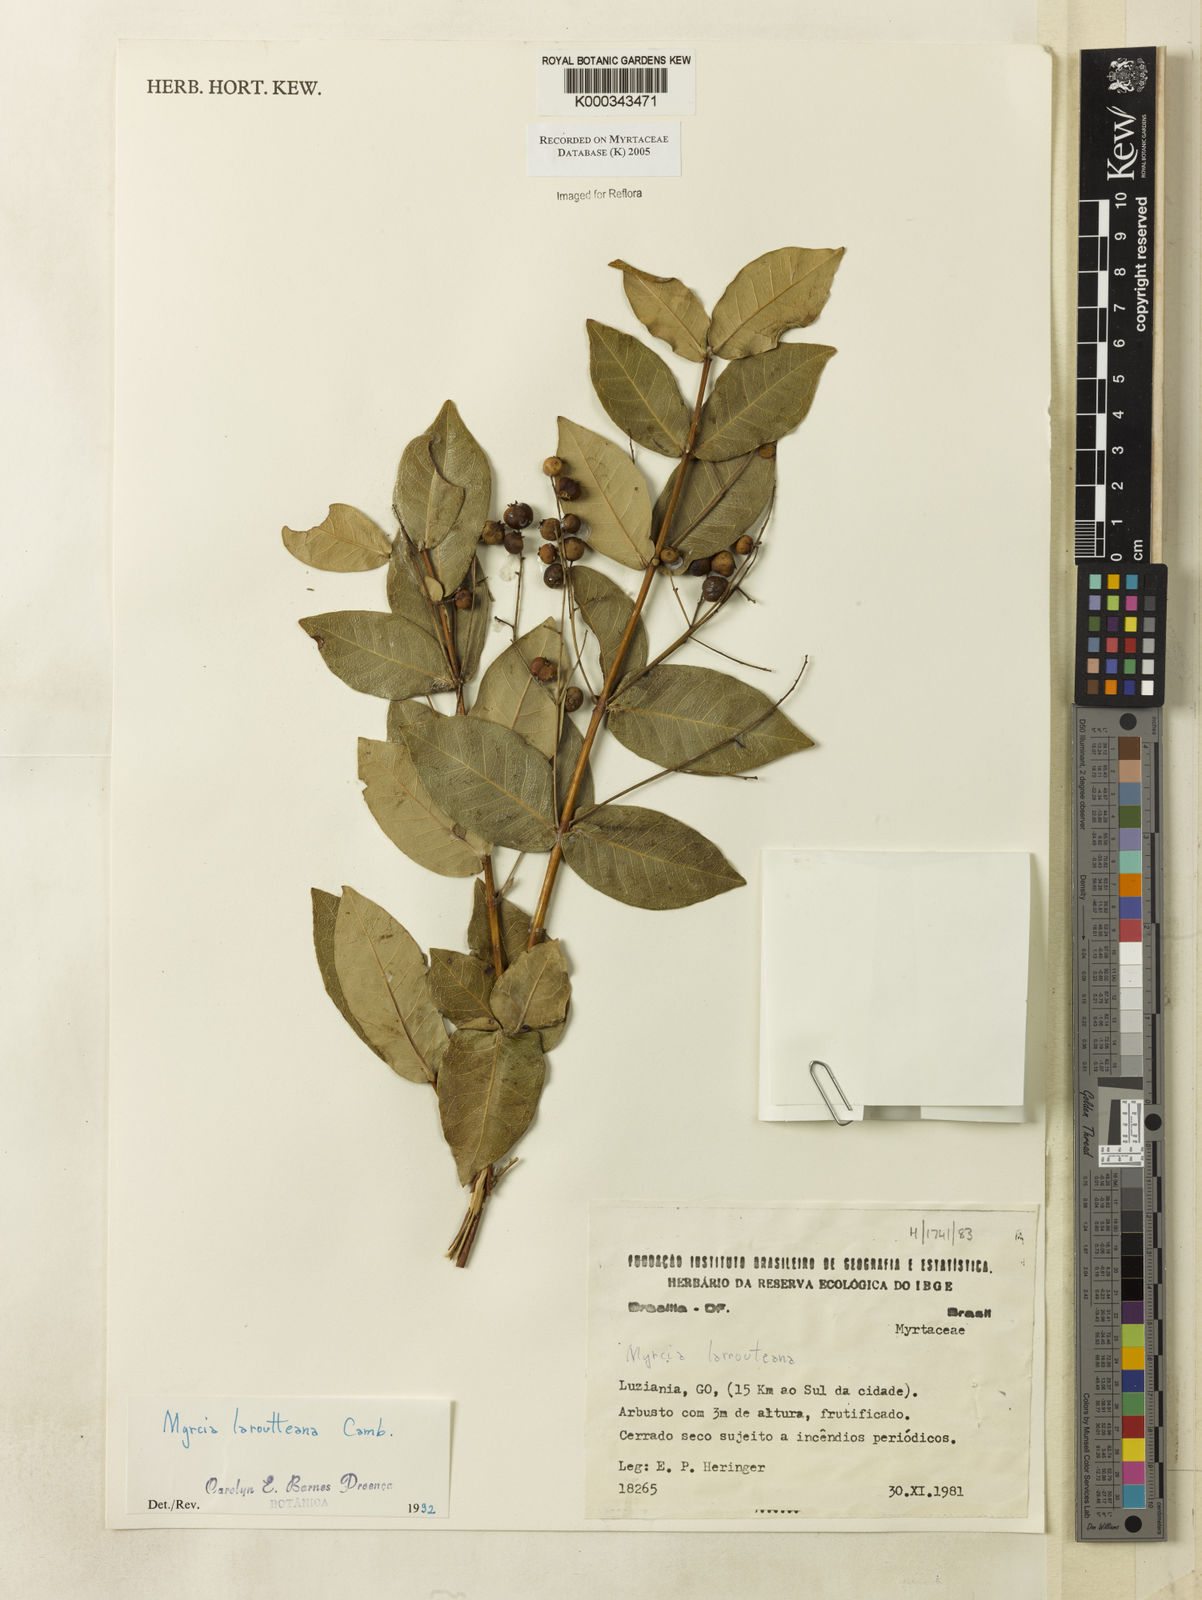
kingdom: Plantae
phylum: Tracheophyta
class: Magnoliopsida
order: Myrtales
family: Myrtaceae
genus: Myrcia
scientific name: Myrcia laruotteana
